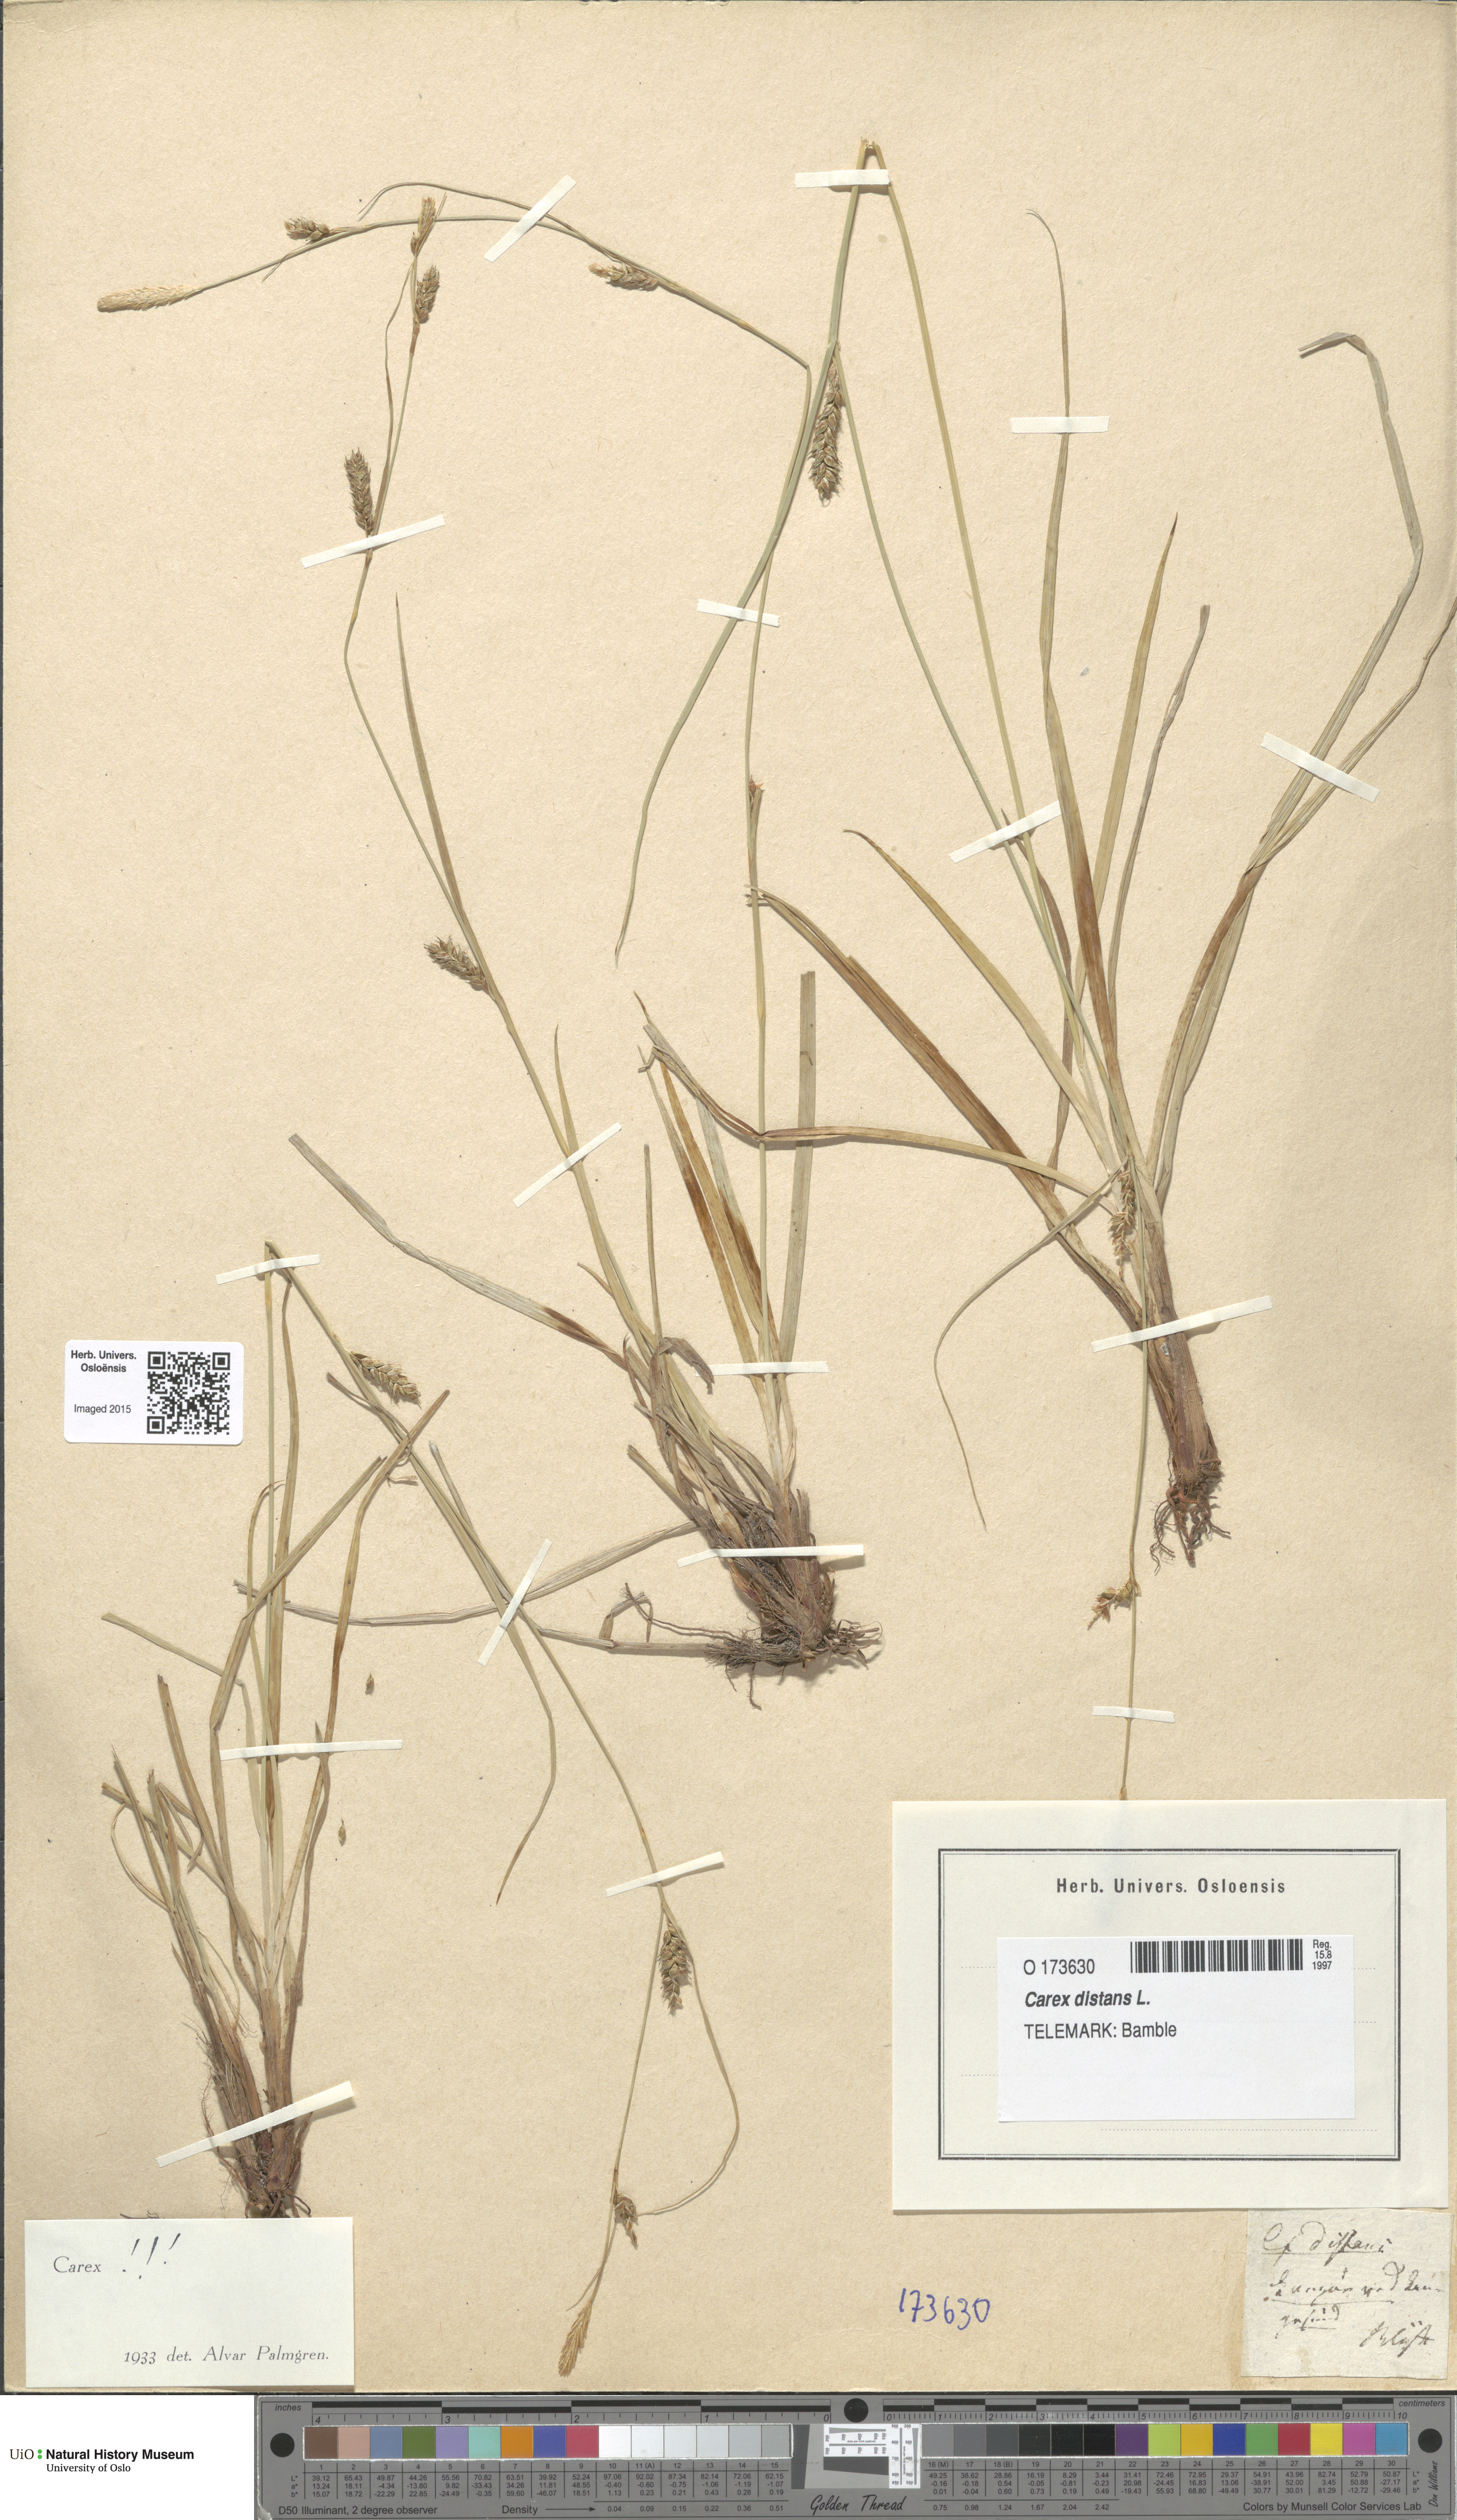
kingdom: Plantae
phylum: Tracheophyta
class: Liliopsida
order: Poales
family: Cyperaceae
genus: Carex
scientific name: Carex distans
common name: Distant sedge
